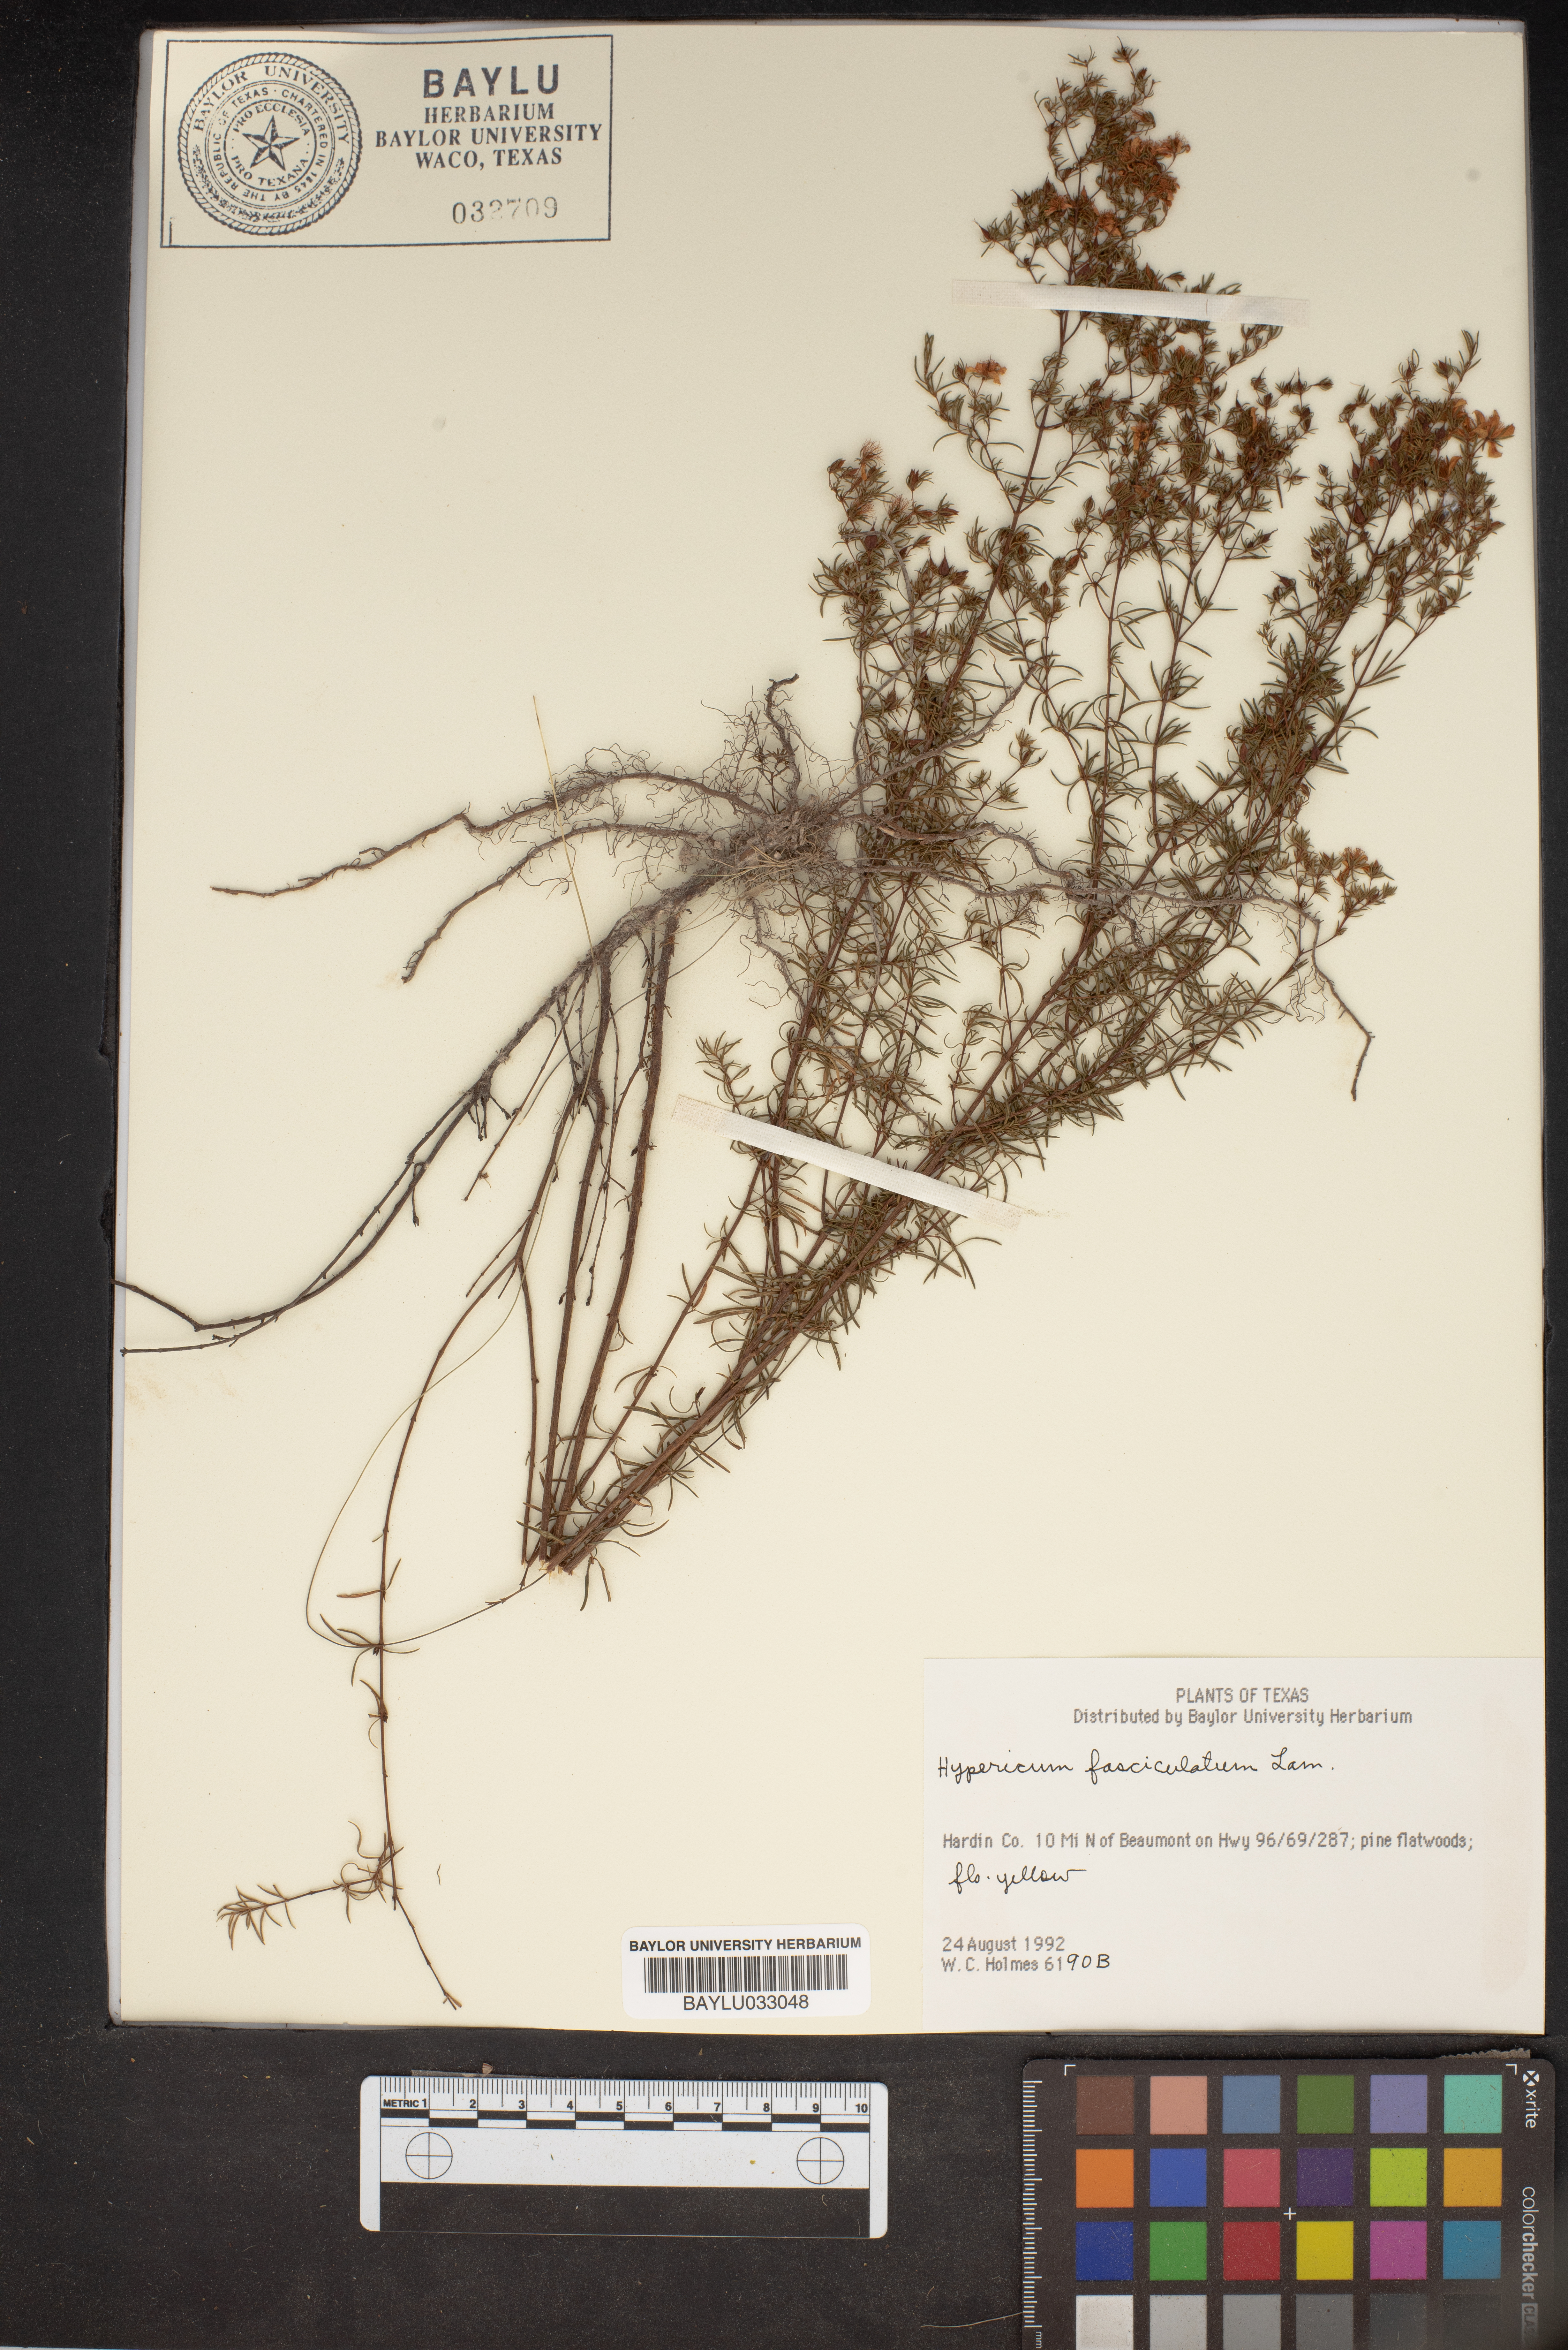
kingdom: Plantae
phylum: Tracheophyta
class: Magnoliopsida
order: Malpighiales
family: Hypericaceae
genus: Hypericum
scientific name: Hypericum fasciculatum
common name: Peelbark st. john's wort
